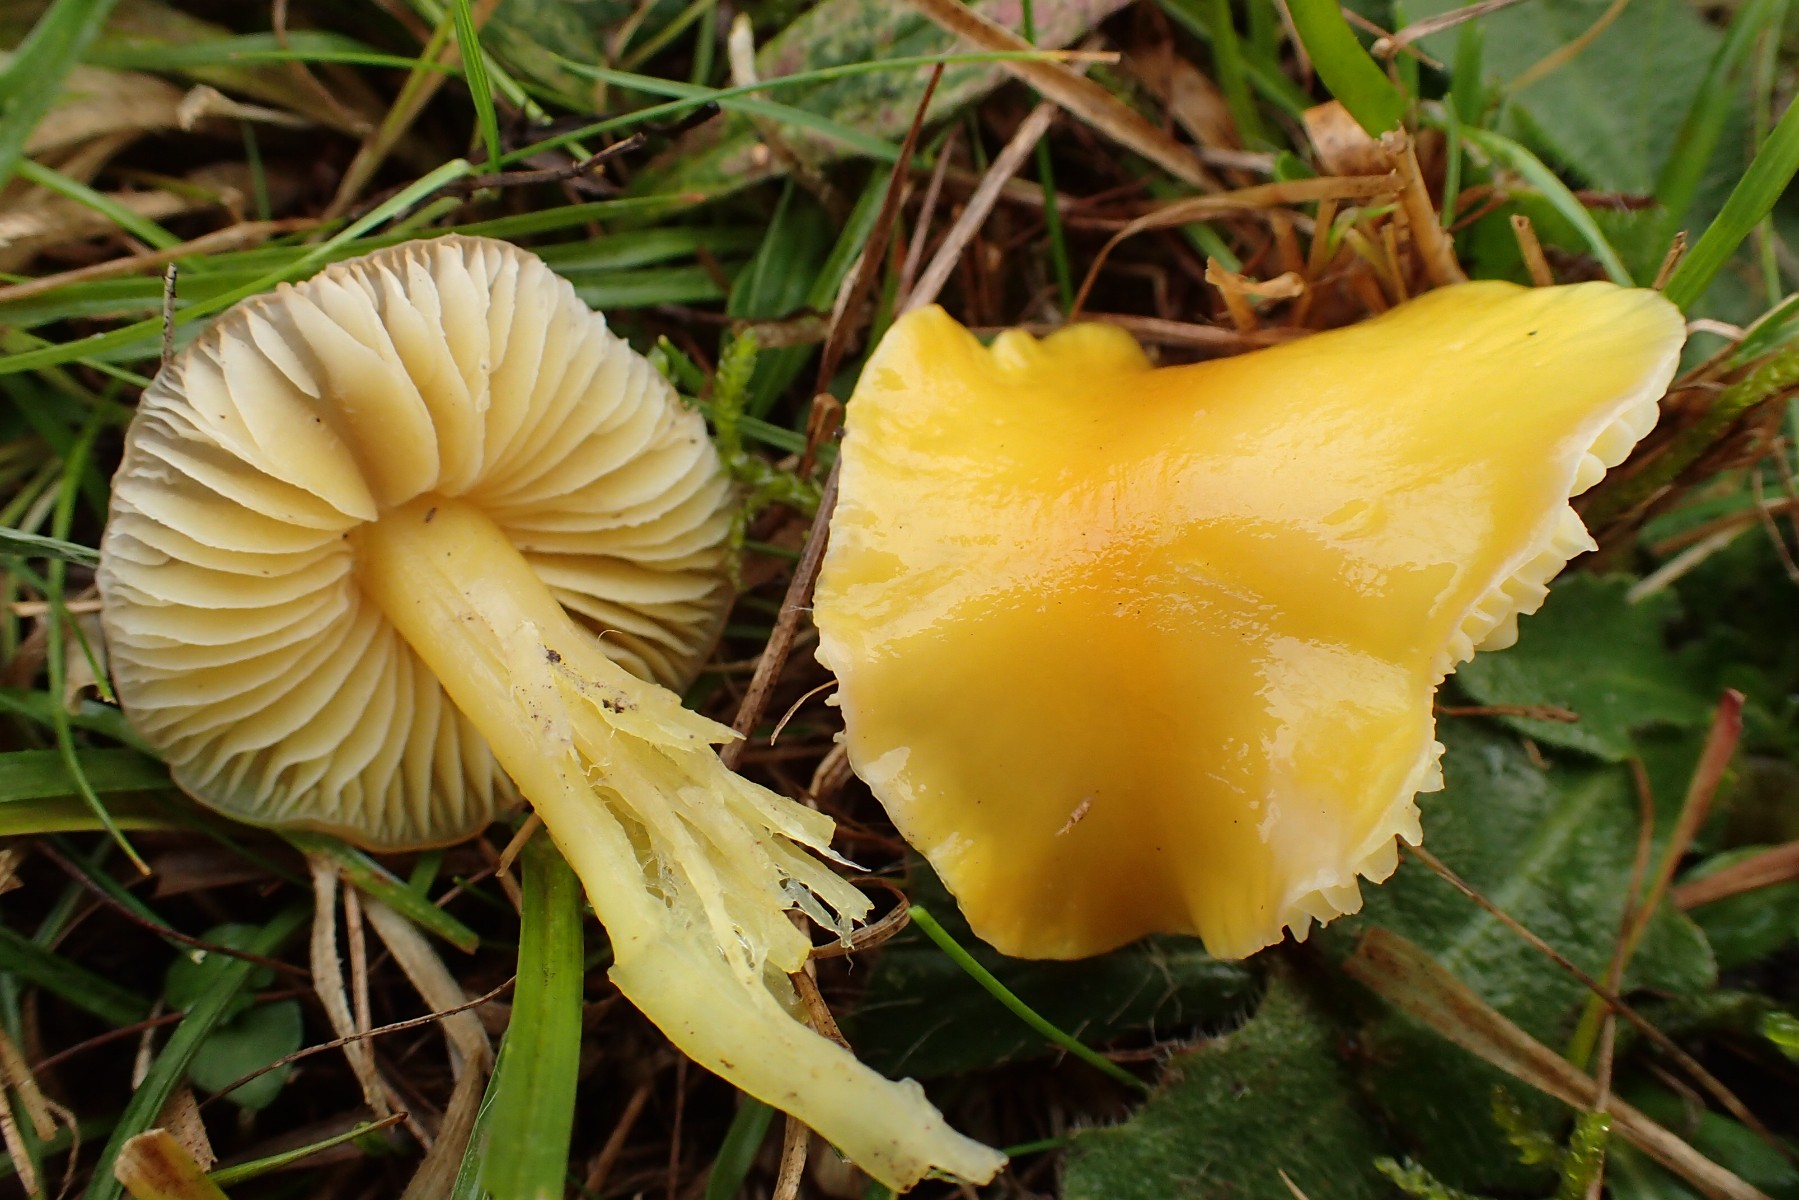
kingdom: Fungi
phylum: Basidiomycota
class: Agaricomycetes
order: Agaricales
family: Hygrophoraceae
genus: Hygrocybe
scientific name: Hygrocybe chlorophana
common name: gul vokshat
